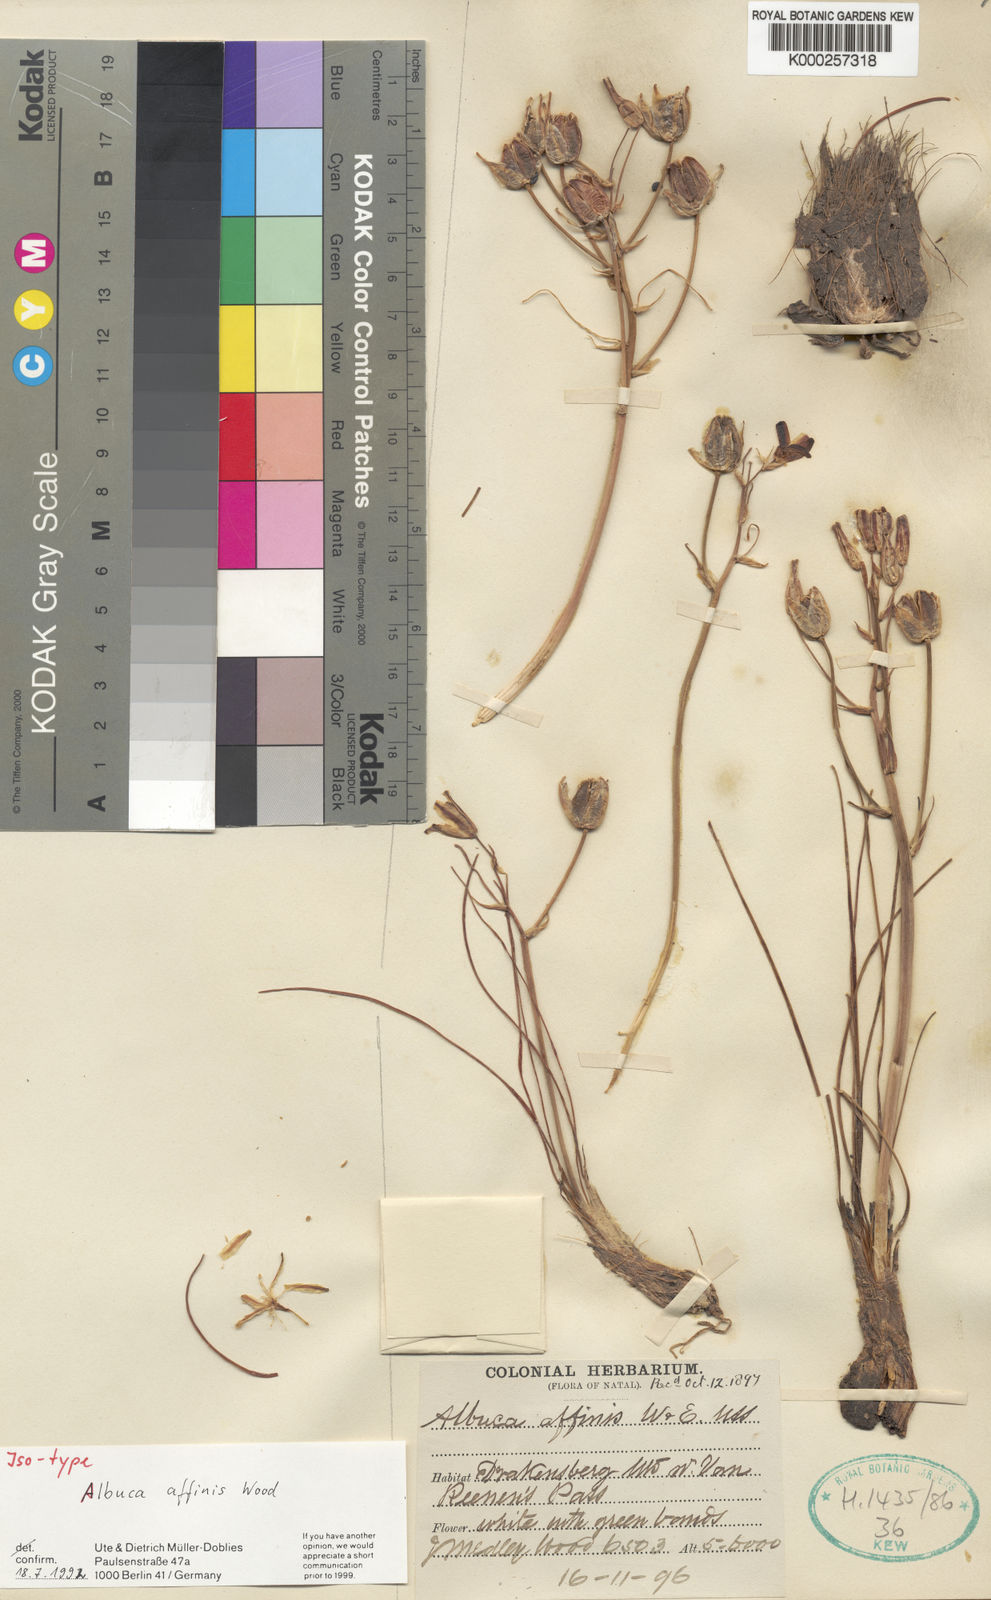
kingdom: Plantae
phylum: Tracheophyta
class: Liliopsida
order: Asparagales
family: Asparagaceae
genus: Albuca
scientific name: Albuca setosa
